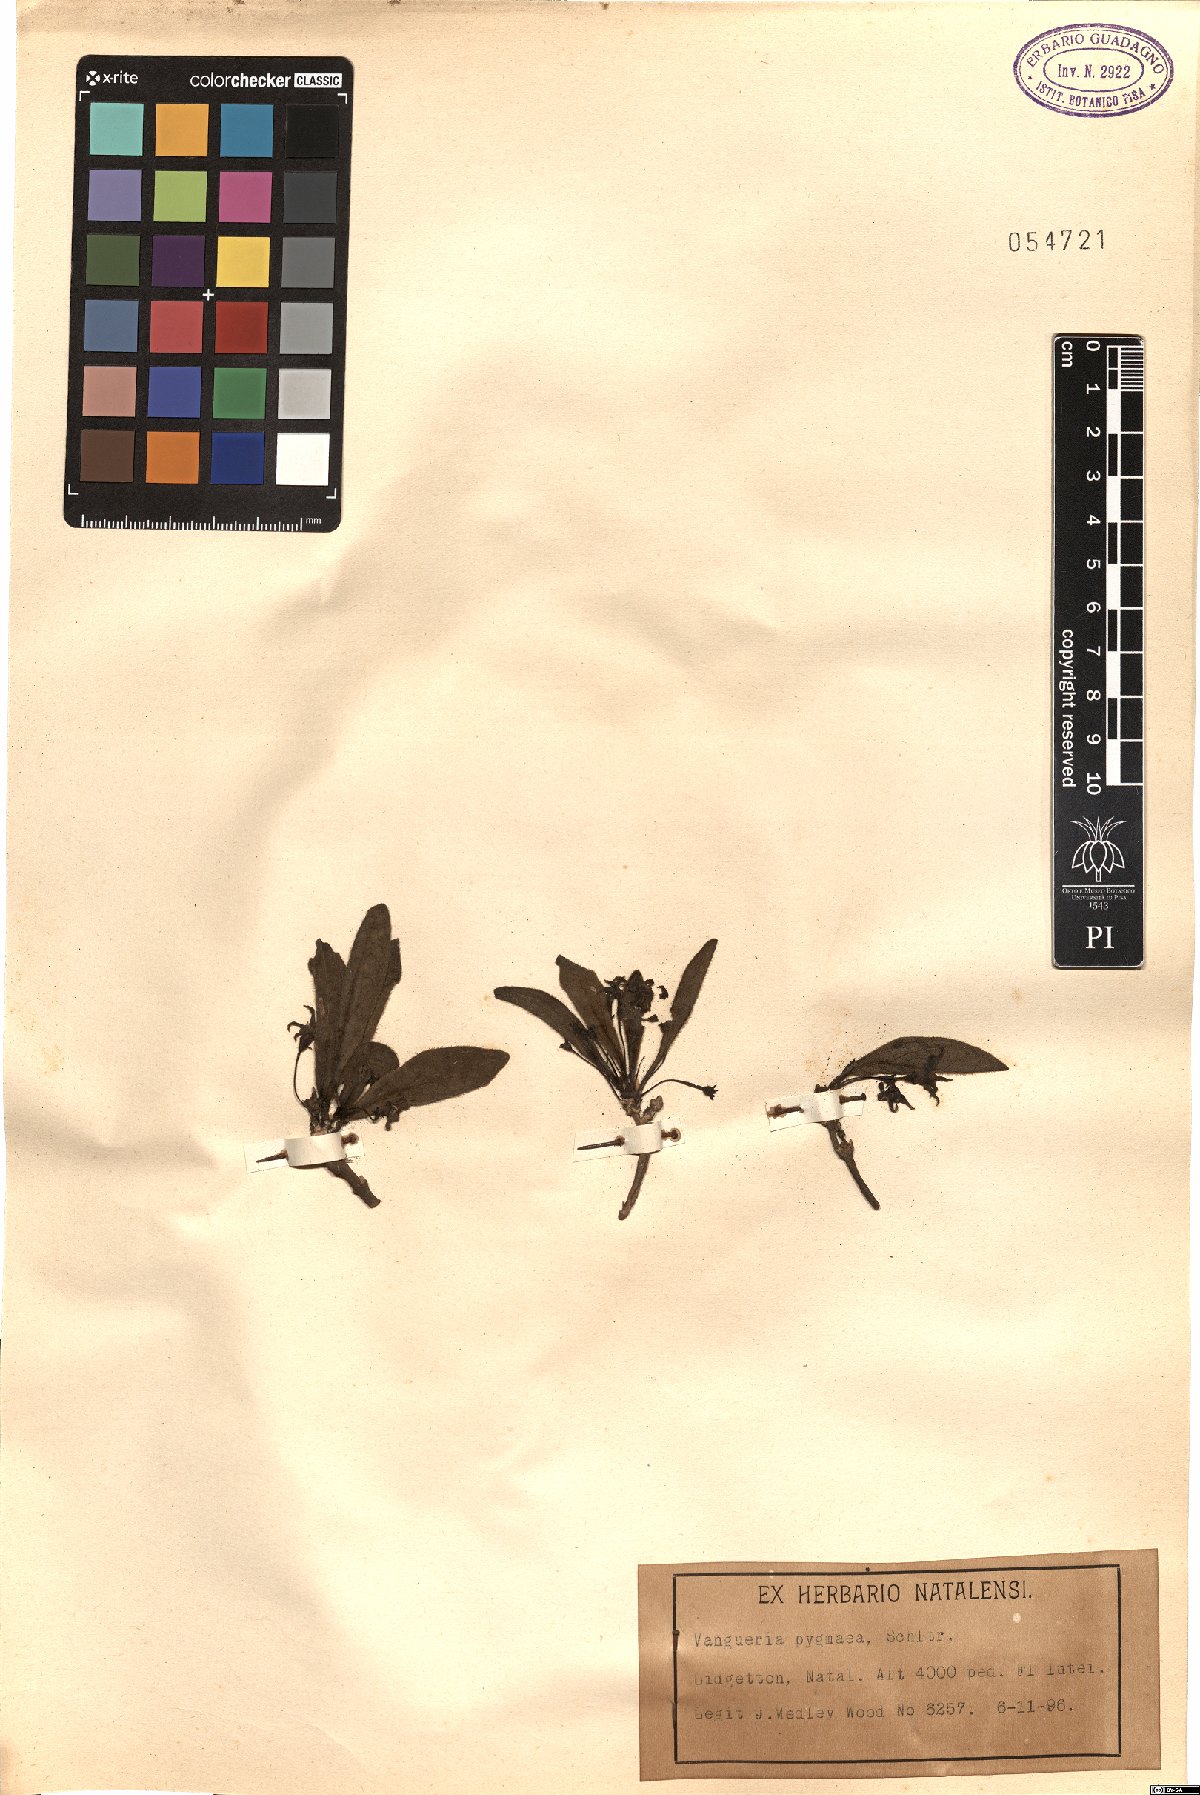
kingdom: Plantae
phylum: Tracheophyta
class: Magnoliopsida
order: Gentianales
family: Rubiaceae
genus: Vangueria
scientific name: Vangueria pygmaea
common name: Hairy gousiektebossie
